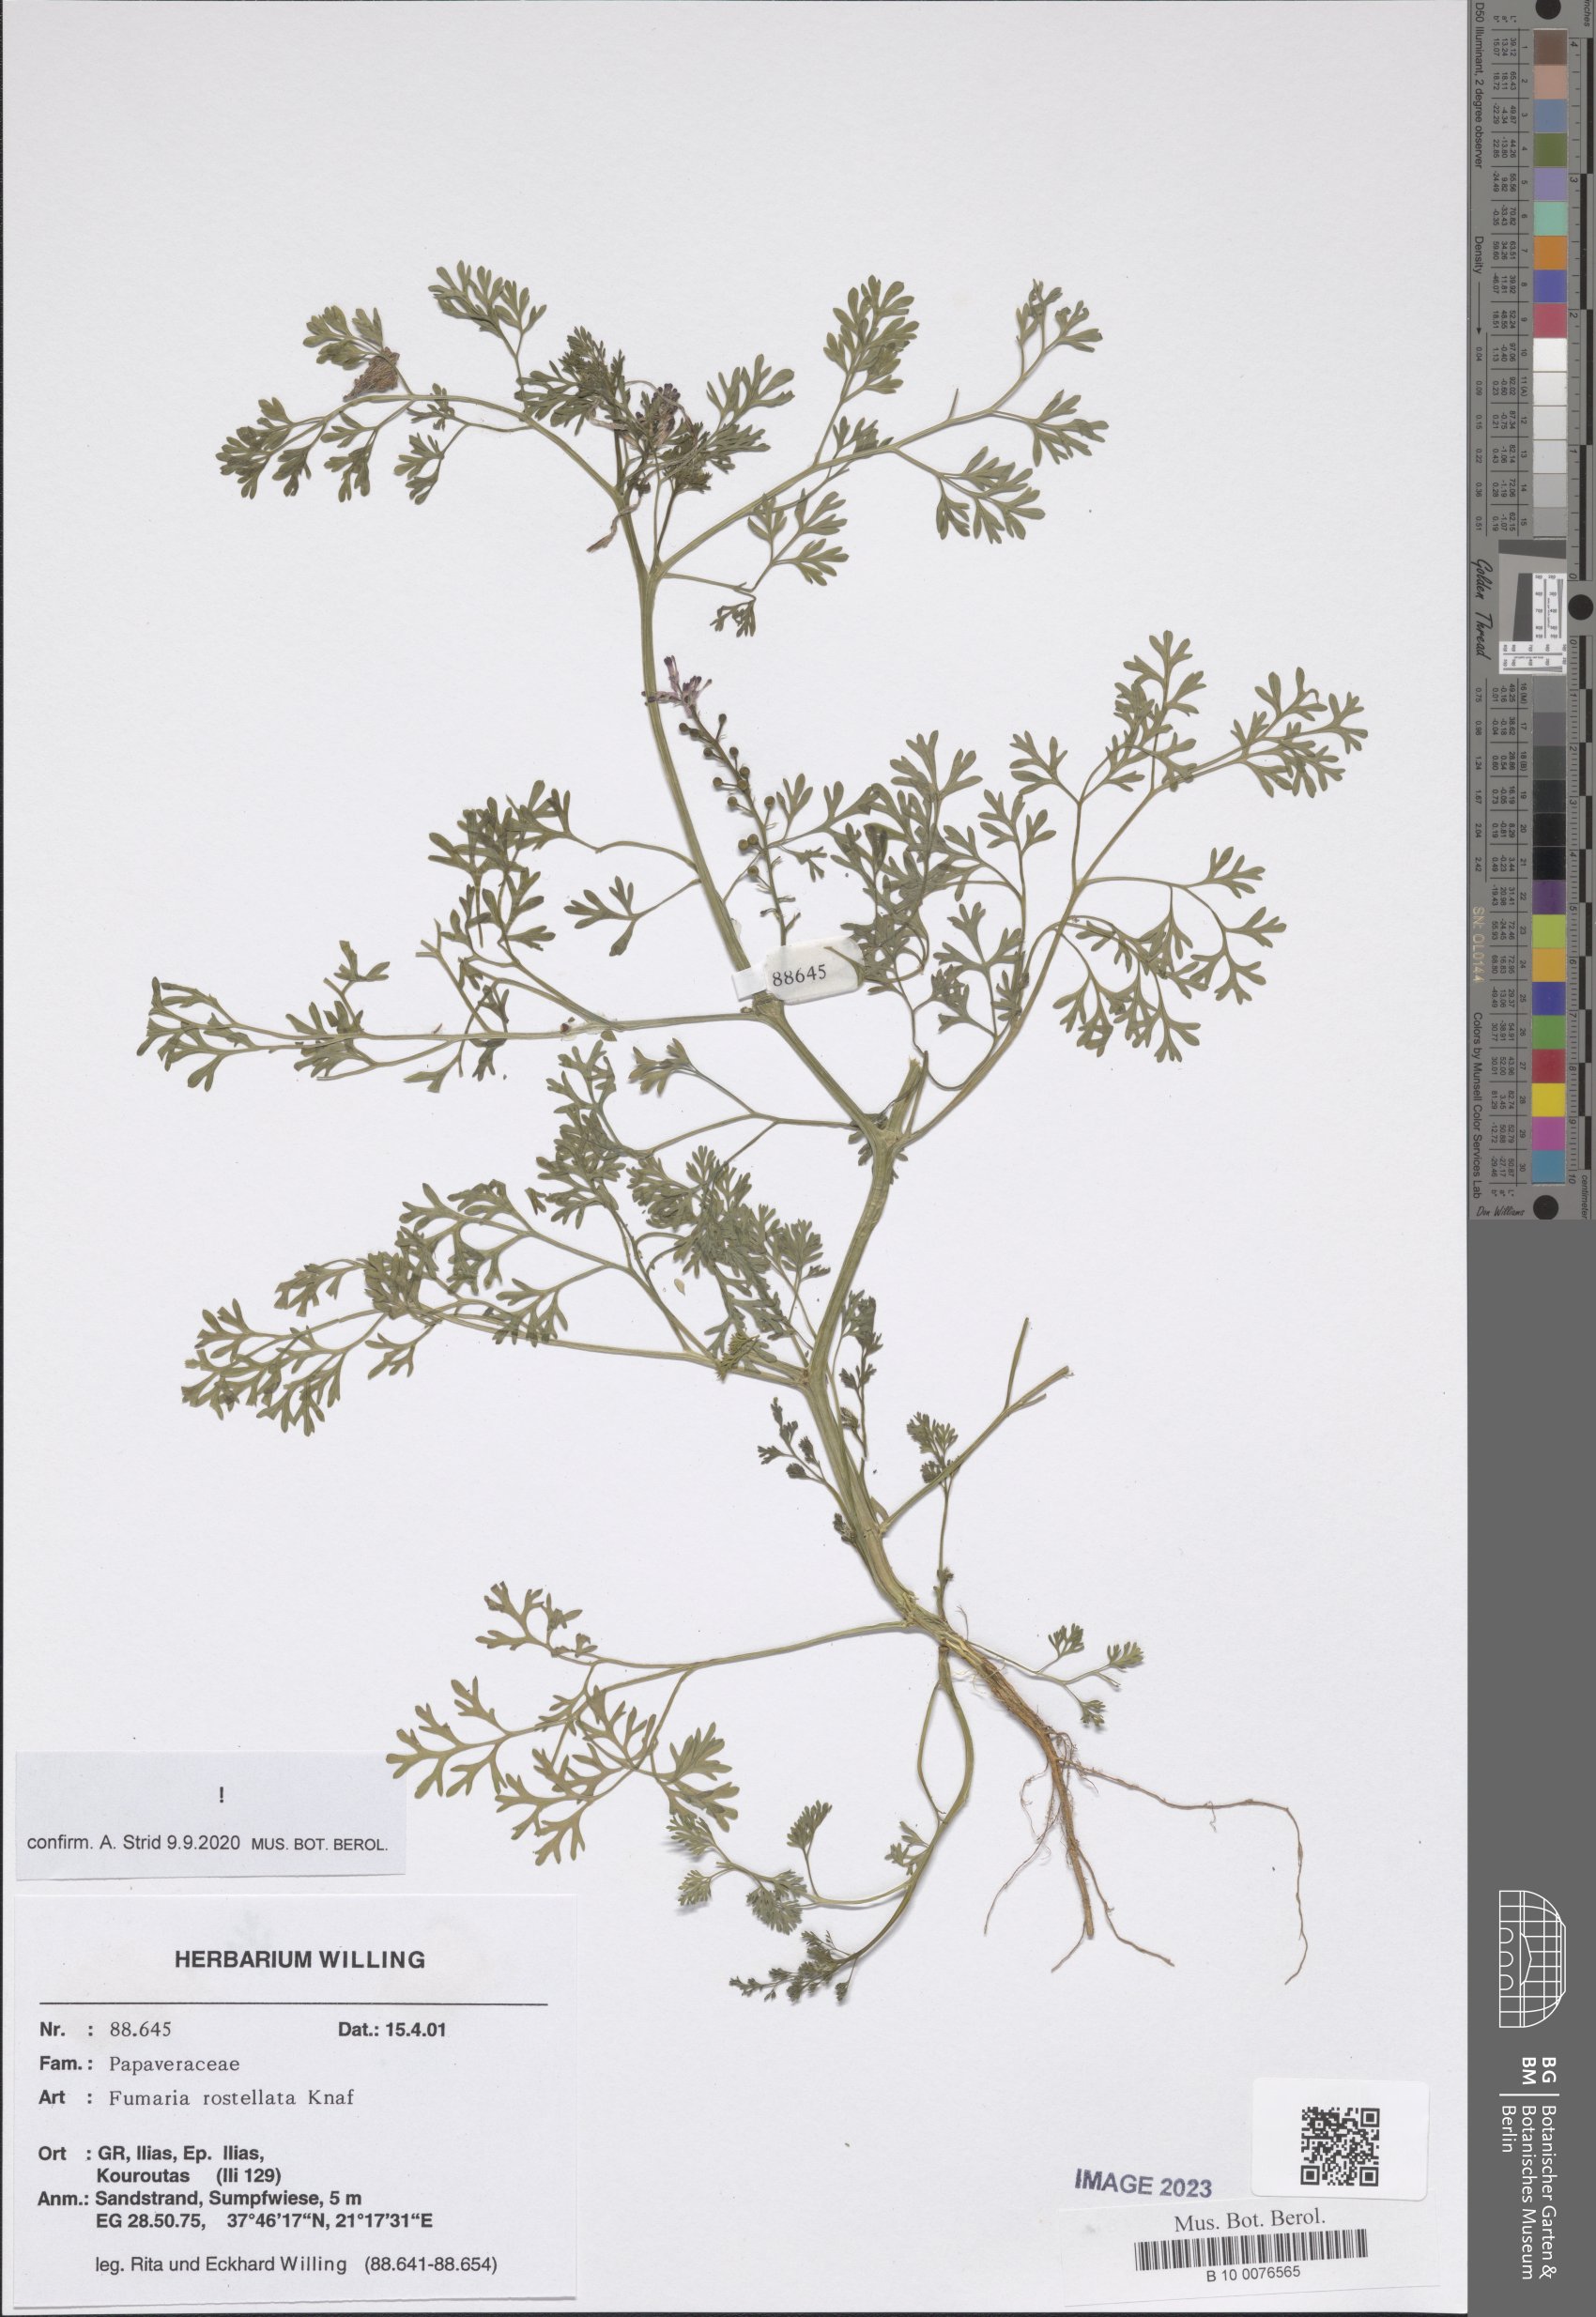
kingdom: Plantae
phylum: Tracheophyta
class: Magnoliopsida
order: Ranunculales
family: Papaveraceae
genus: Fumaria
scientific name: Fumaria rostellata
